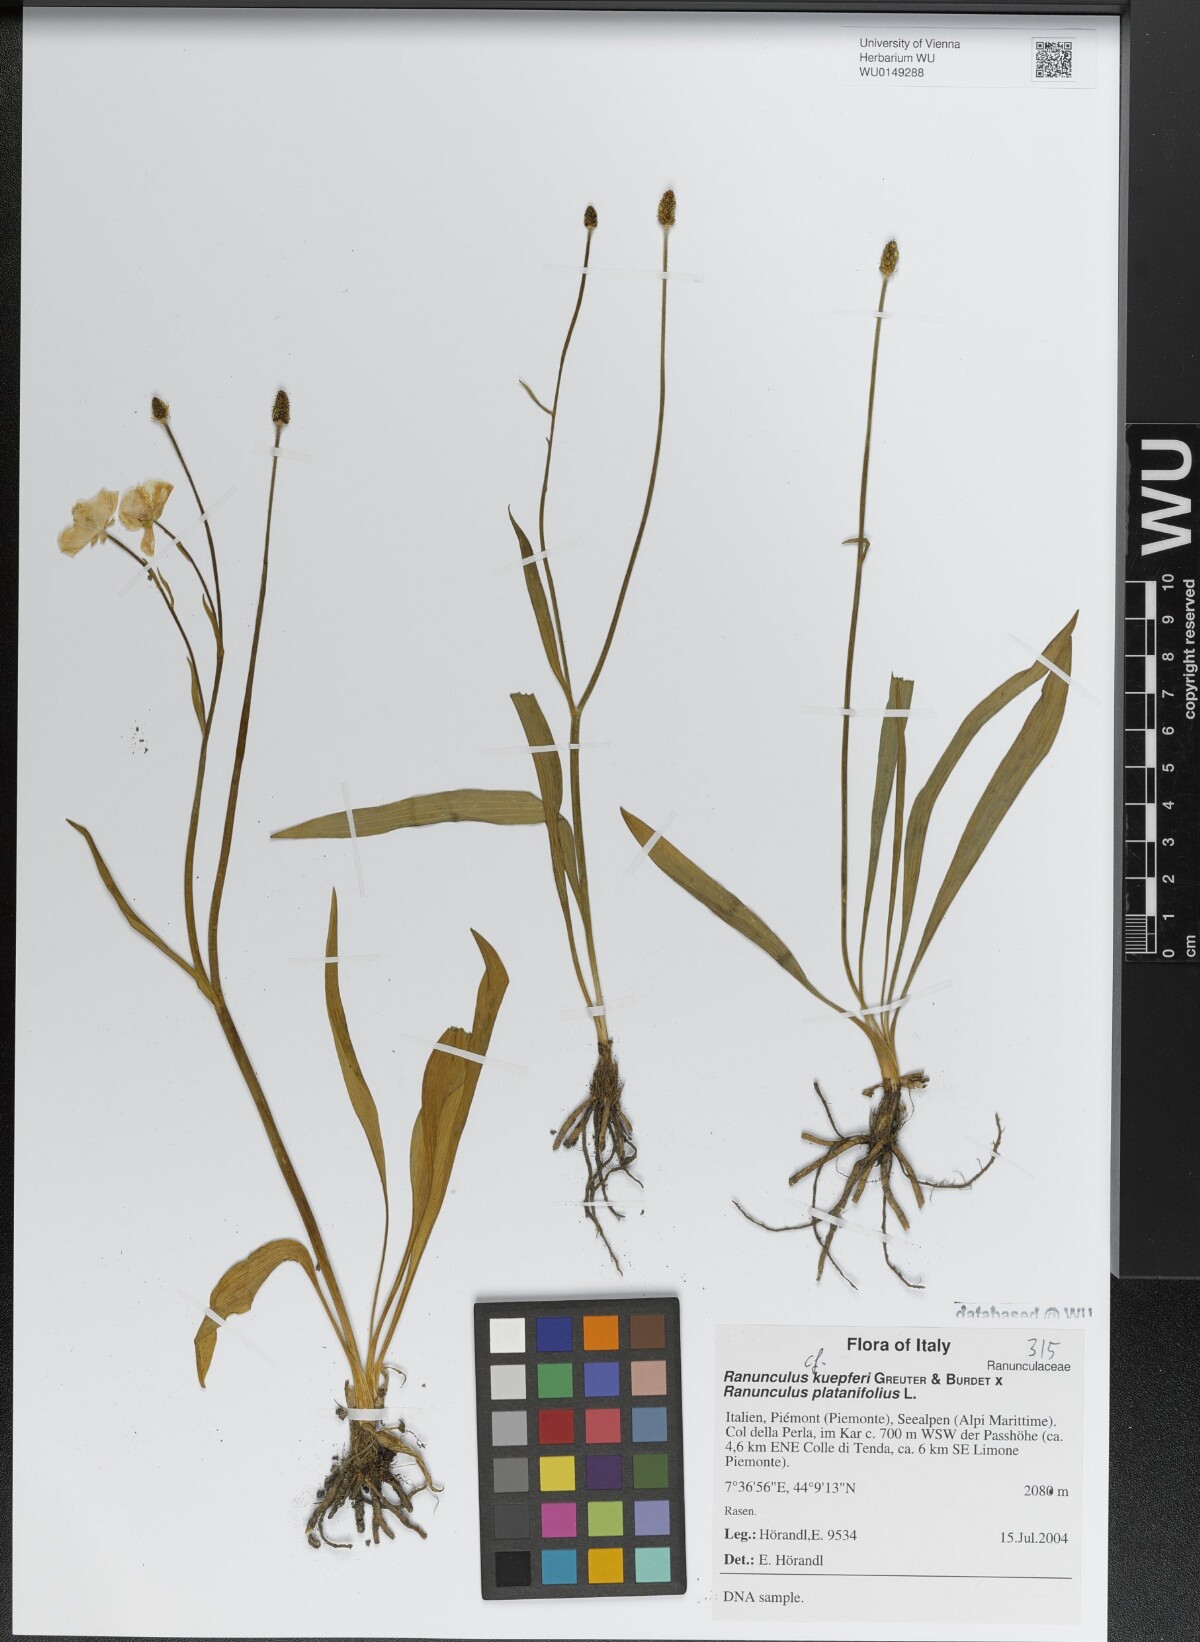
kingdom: Plantae
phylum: Tracheophyta
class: Magnoliopsida
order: Ranunculales
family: Ranunculaceae
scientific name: Ranunculaceae
